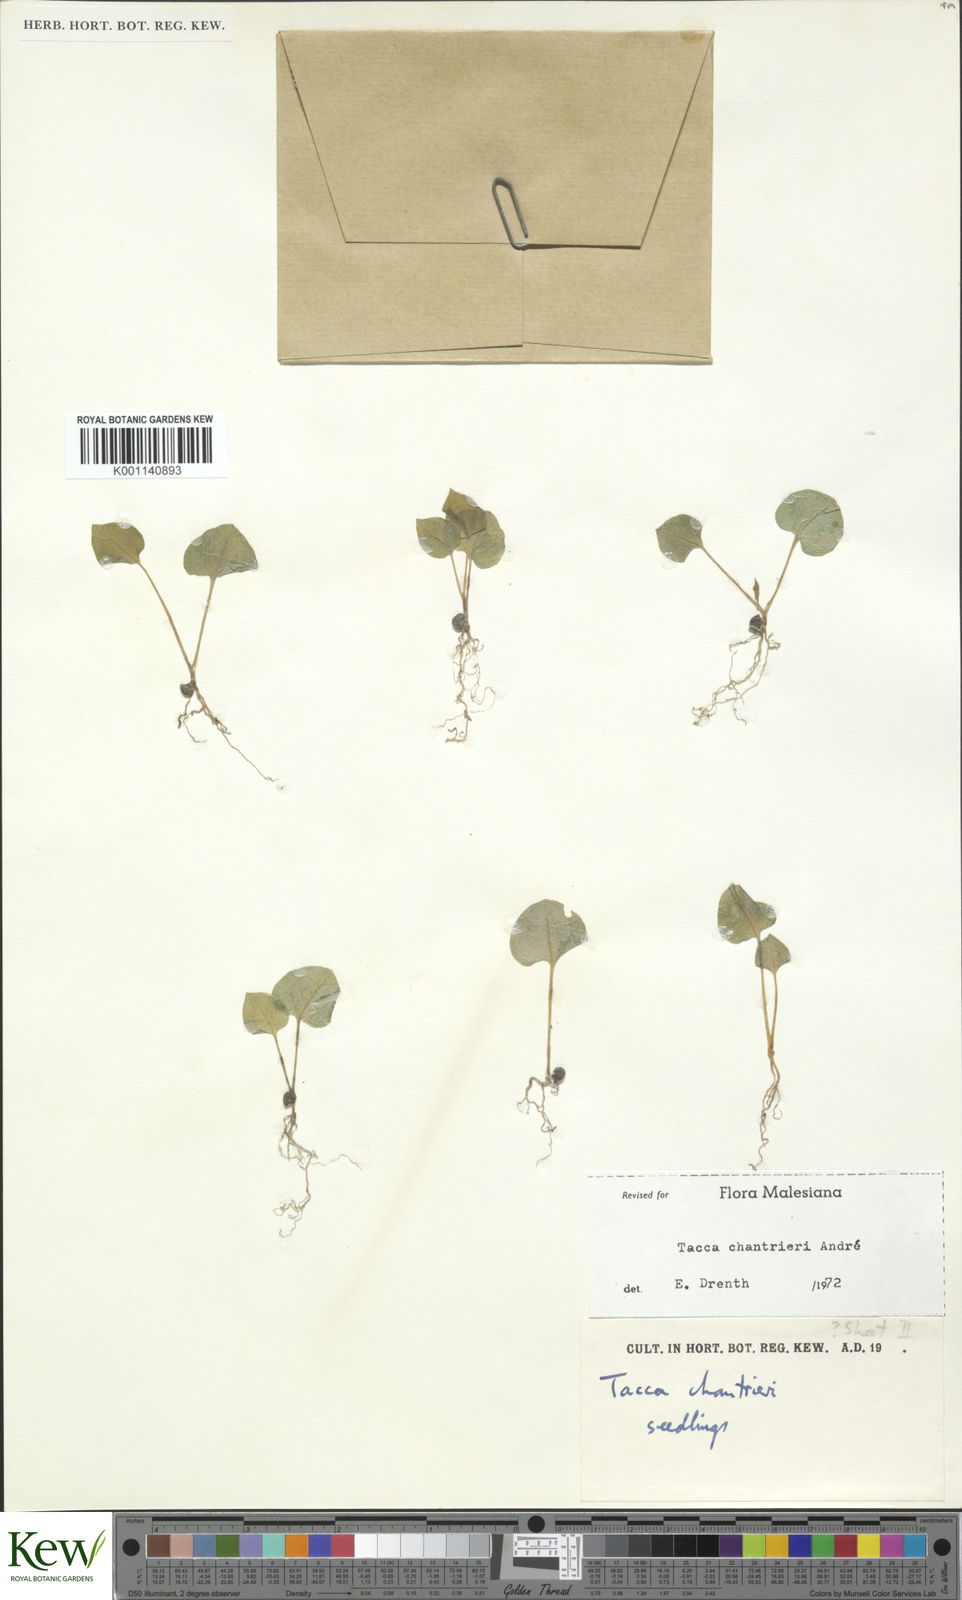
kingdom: Plantae
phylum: Tracheophyta
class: Liliopsida
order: Dioscoreales
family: Dioscoreaceae
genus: Tacca
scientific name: Tacca
